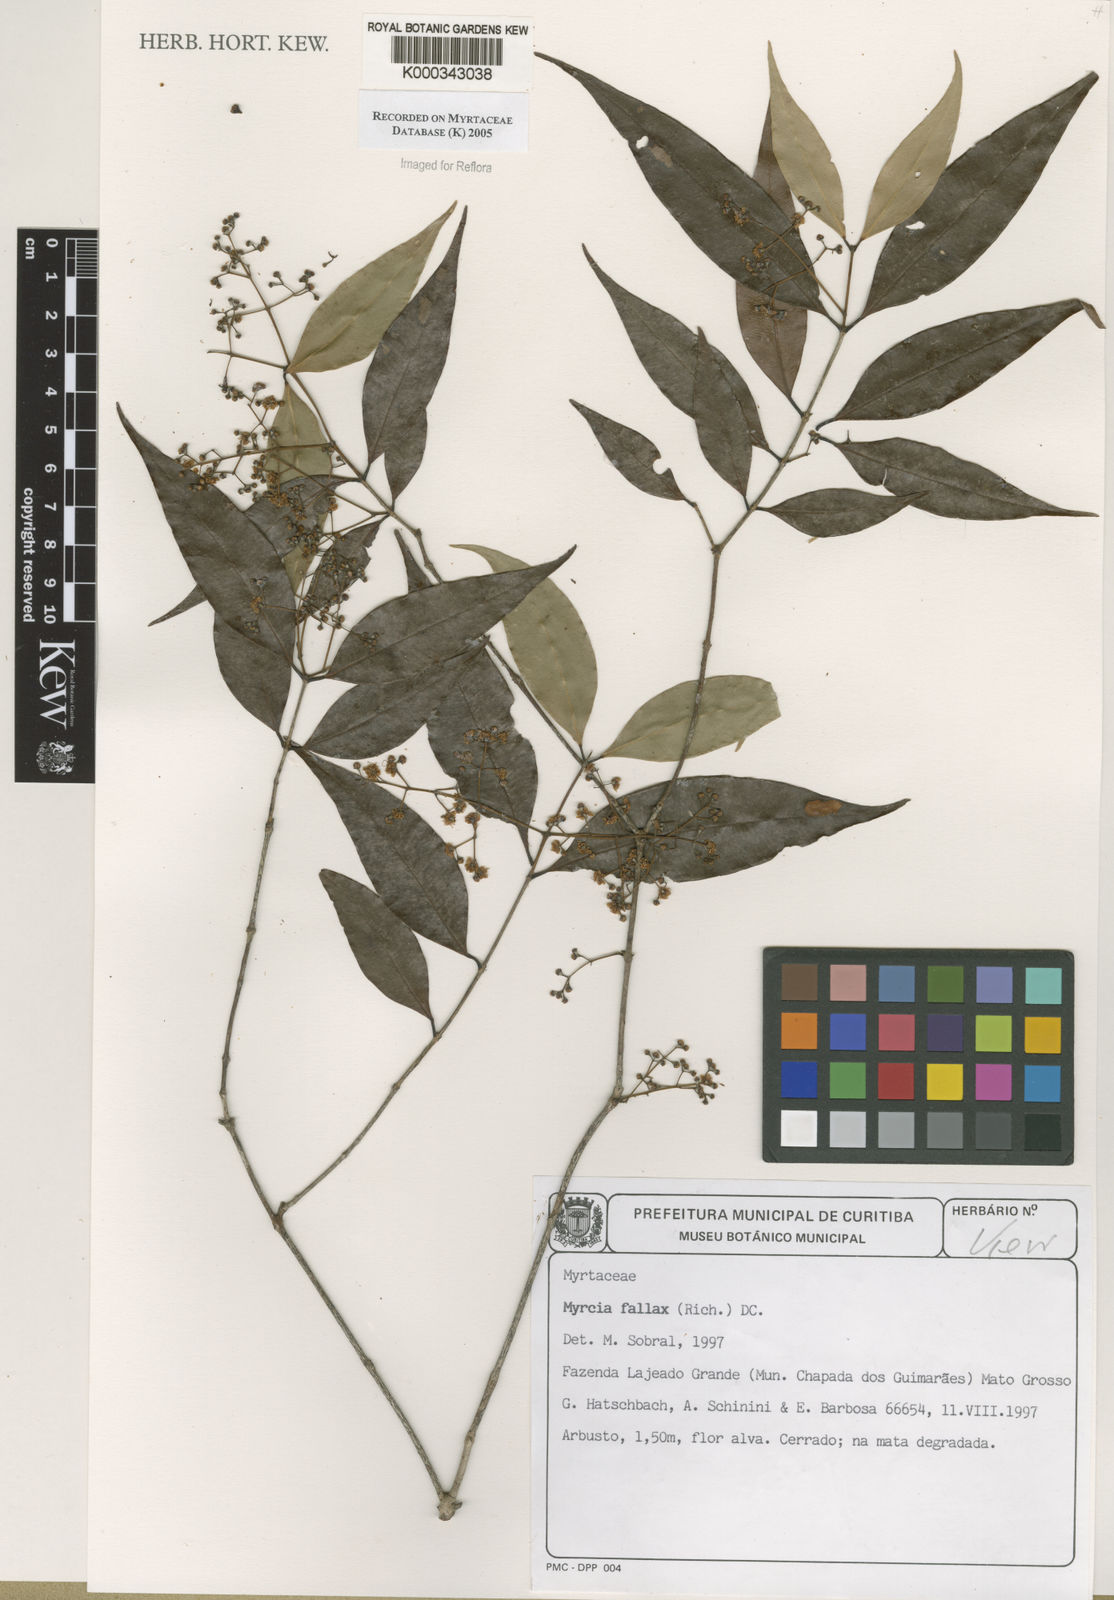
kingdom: Plantae
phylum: Tracheophyta
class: Magnoliopsida
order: Myrtales
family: Myrtaceae
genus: Myrcia
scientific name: Myrcia splendens
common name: Surinam cherry
